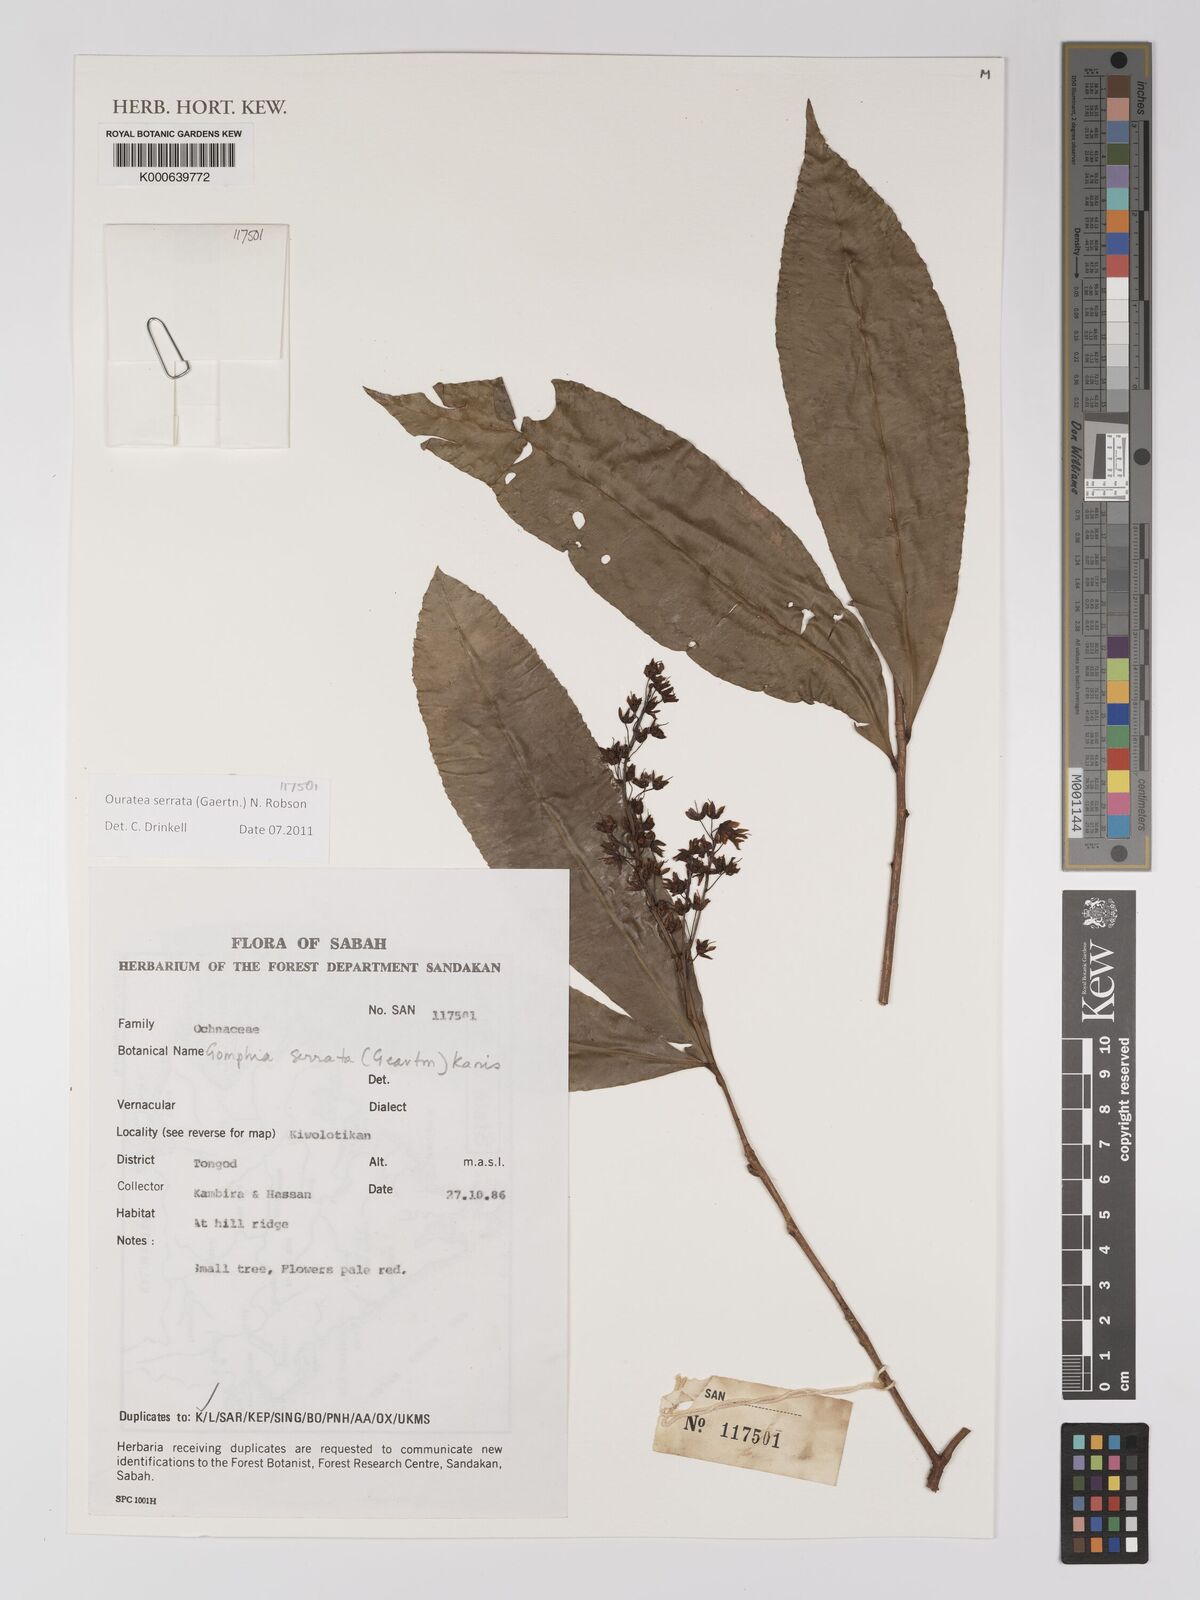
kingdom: Plantae
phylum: Tracheophyta
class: Magnoliopsida
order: Malpighiales
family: Ochnaceae
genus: Gomphia
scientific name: Gomphia serrata
